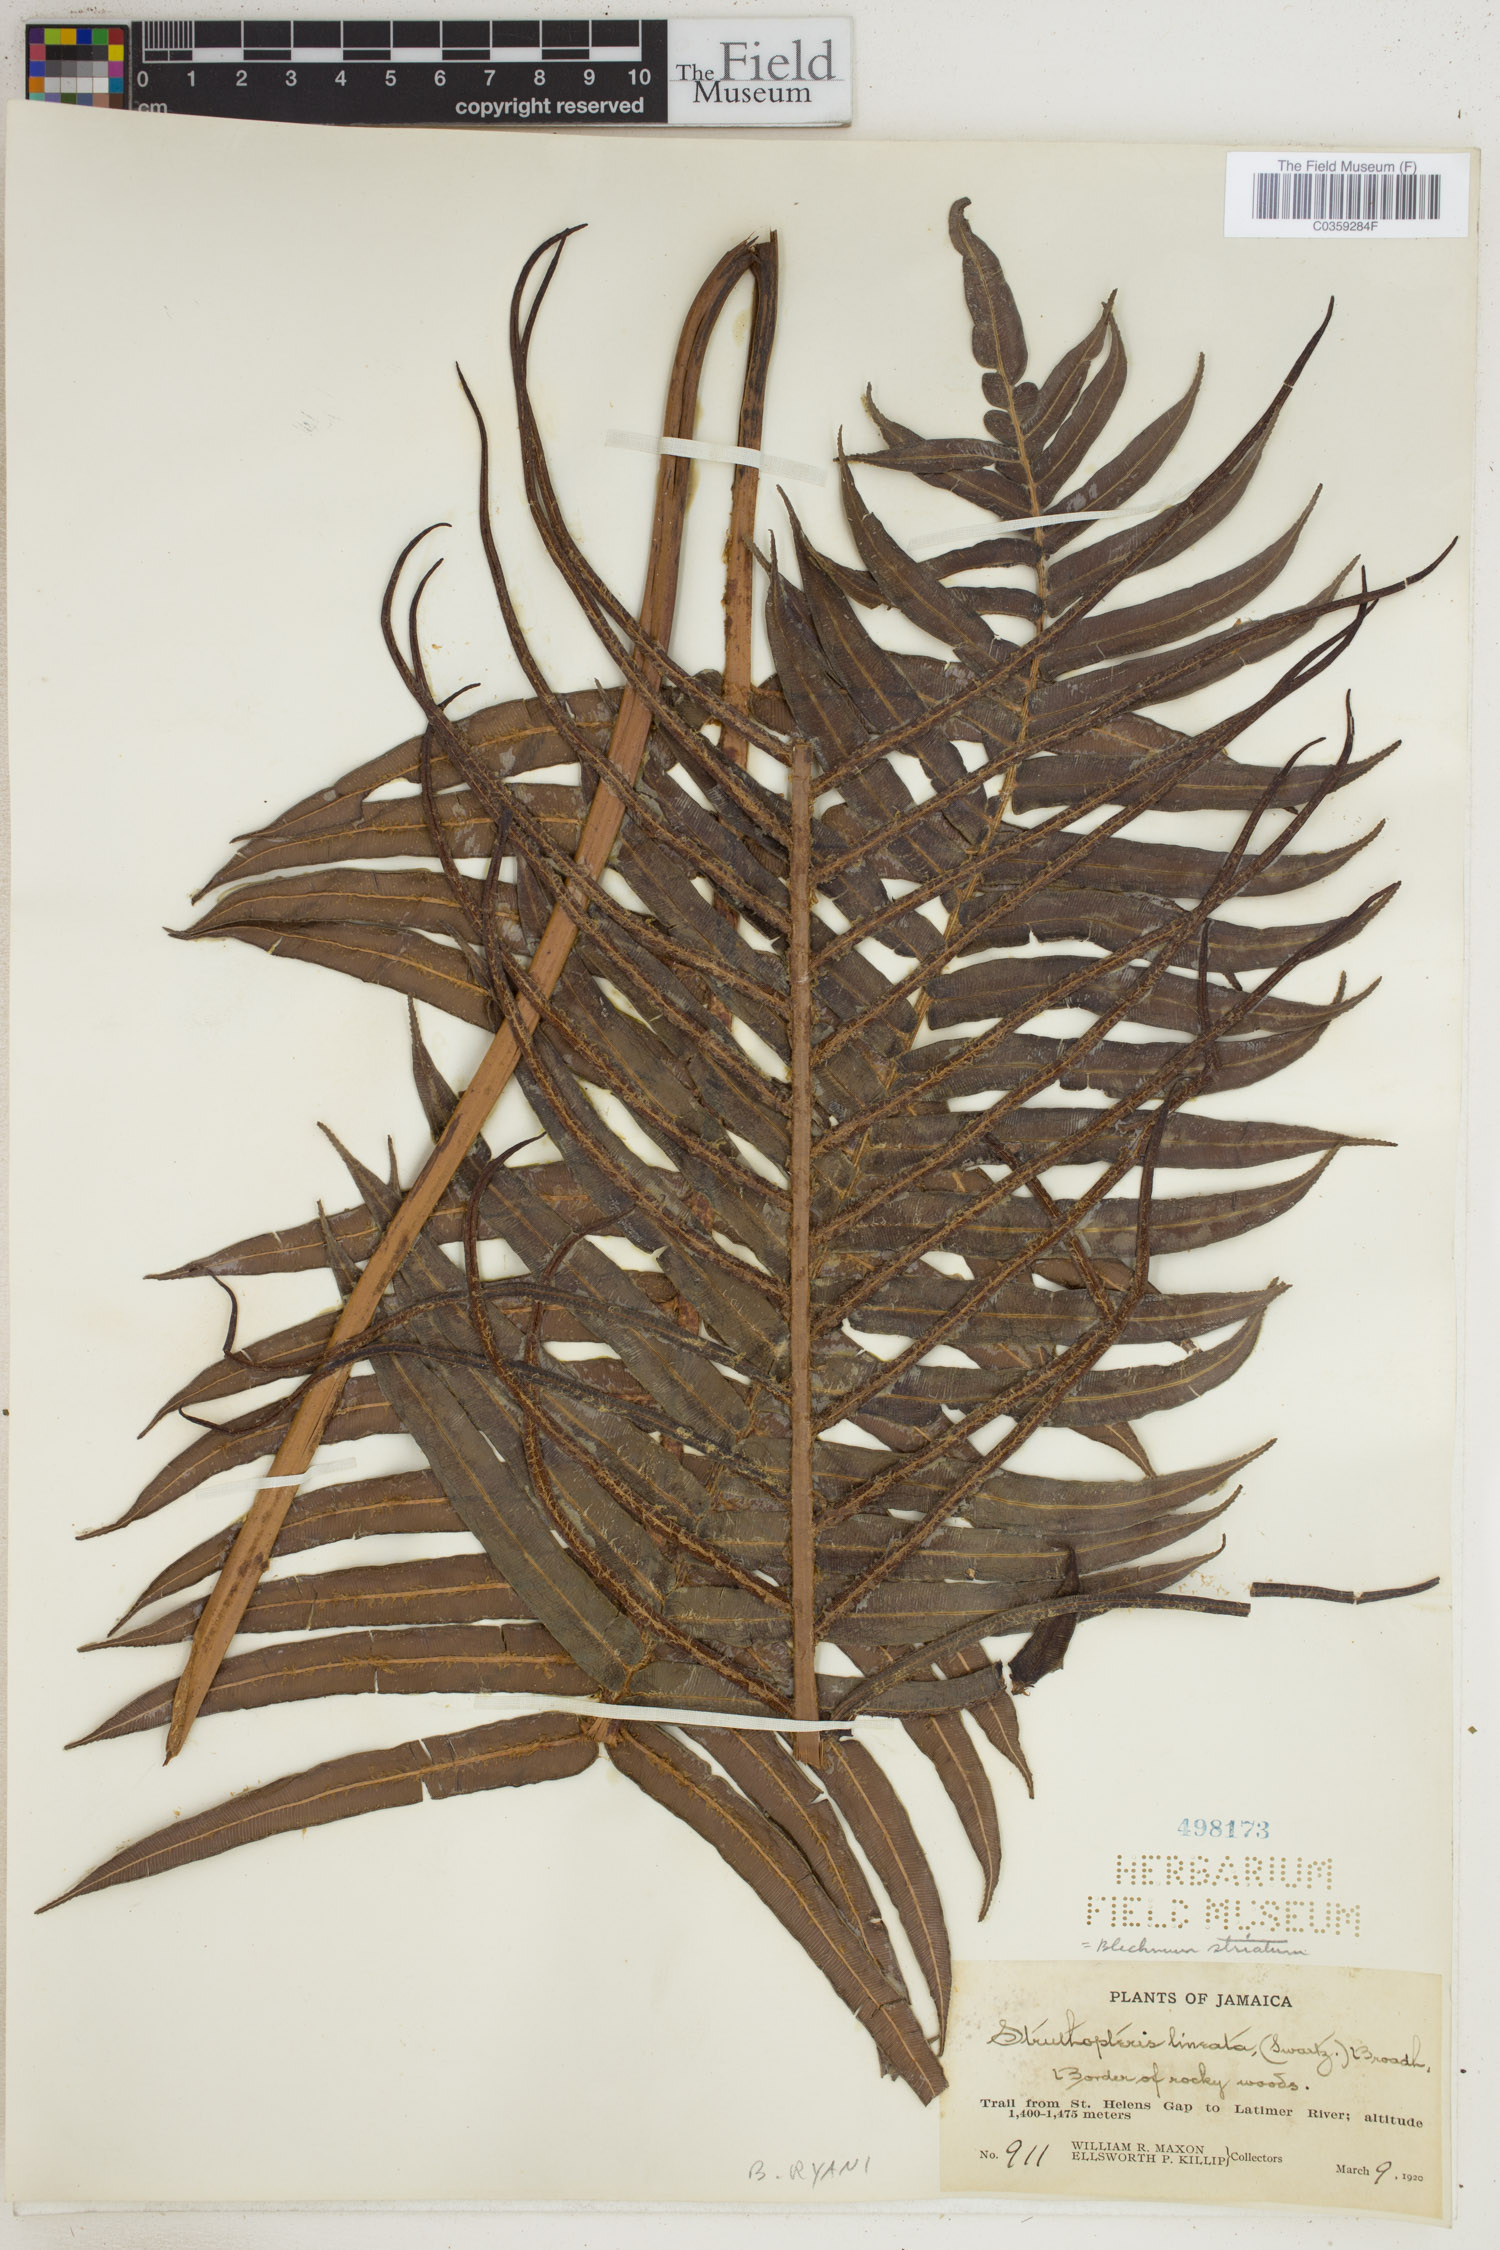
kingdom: Plantae
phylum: Tracheophyta
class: Polypodiopsida
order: Polypodiales
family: Blechnaceae
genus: Parablechnum
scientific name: Parablechnum ryanii
